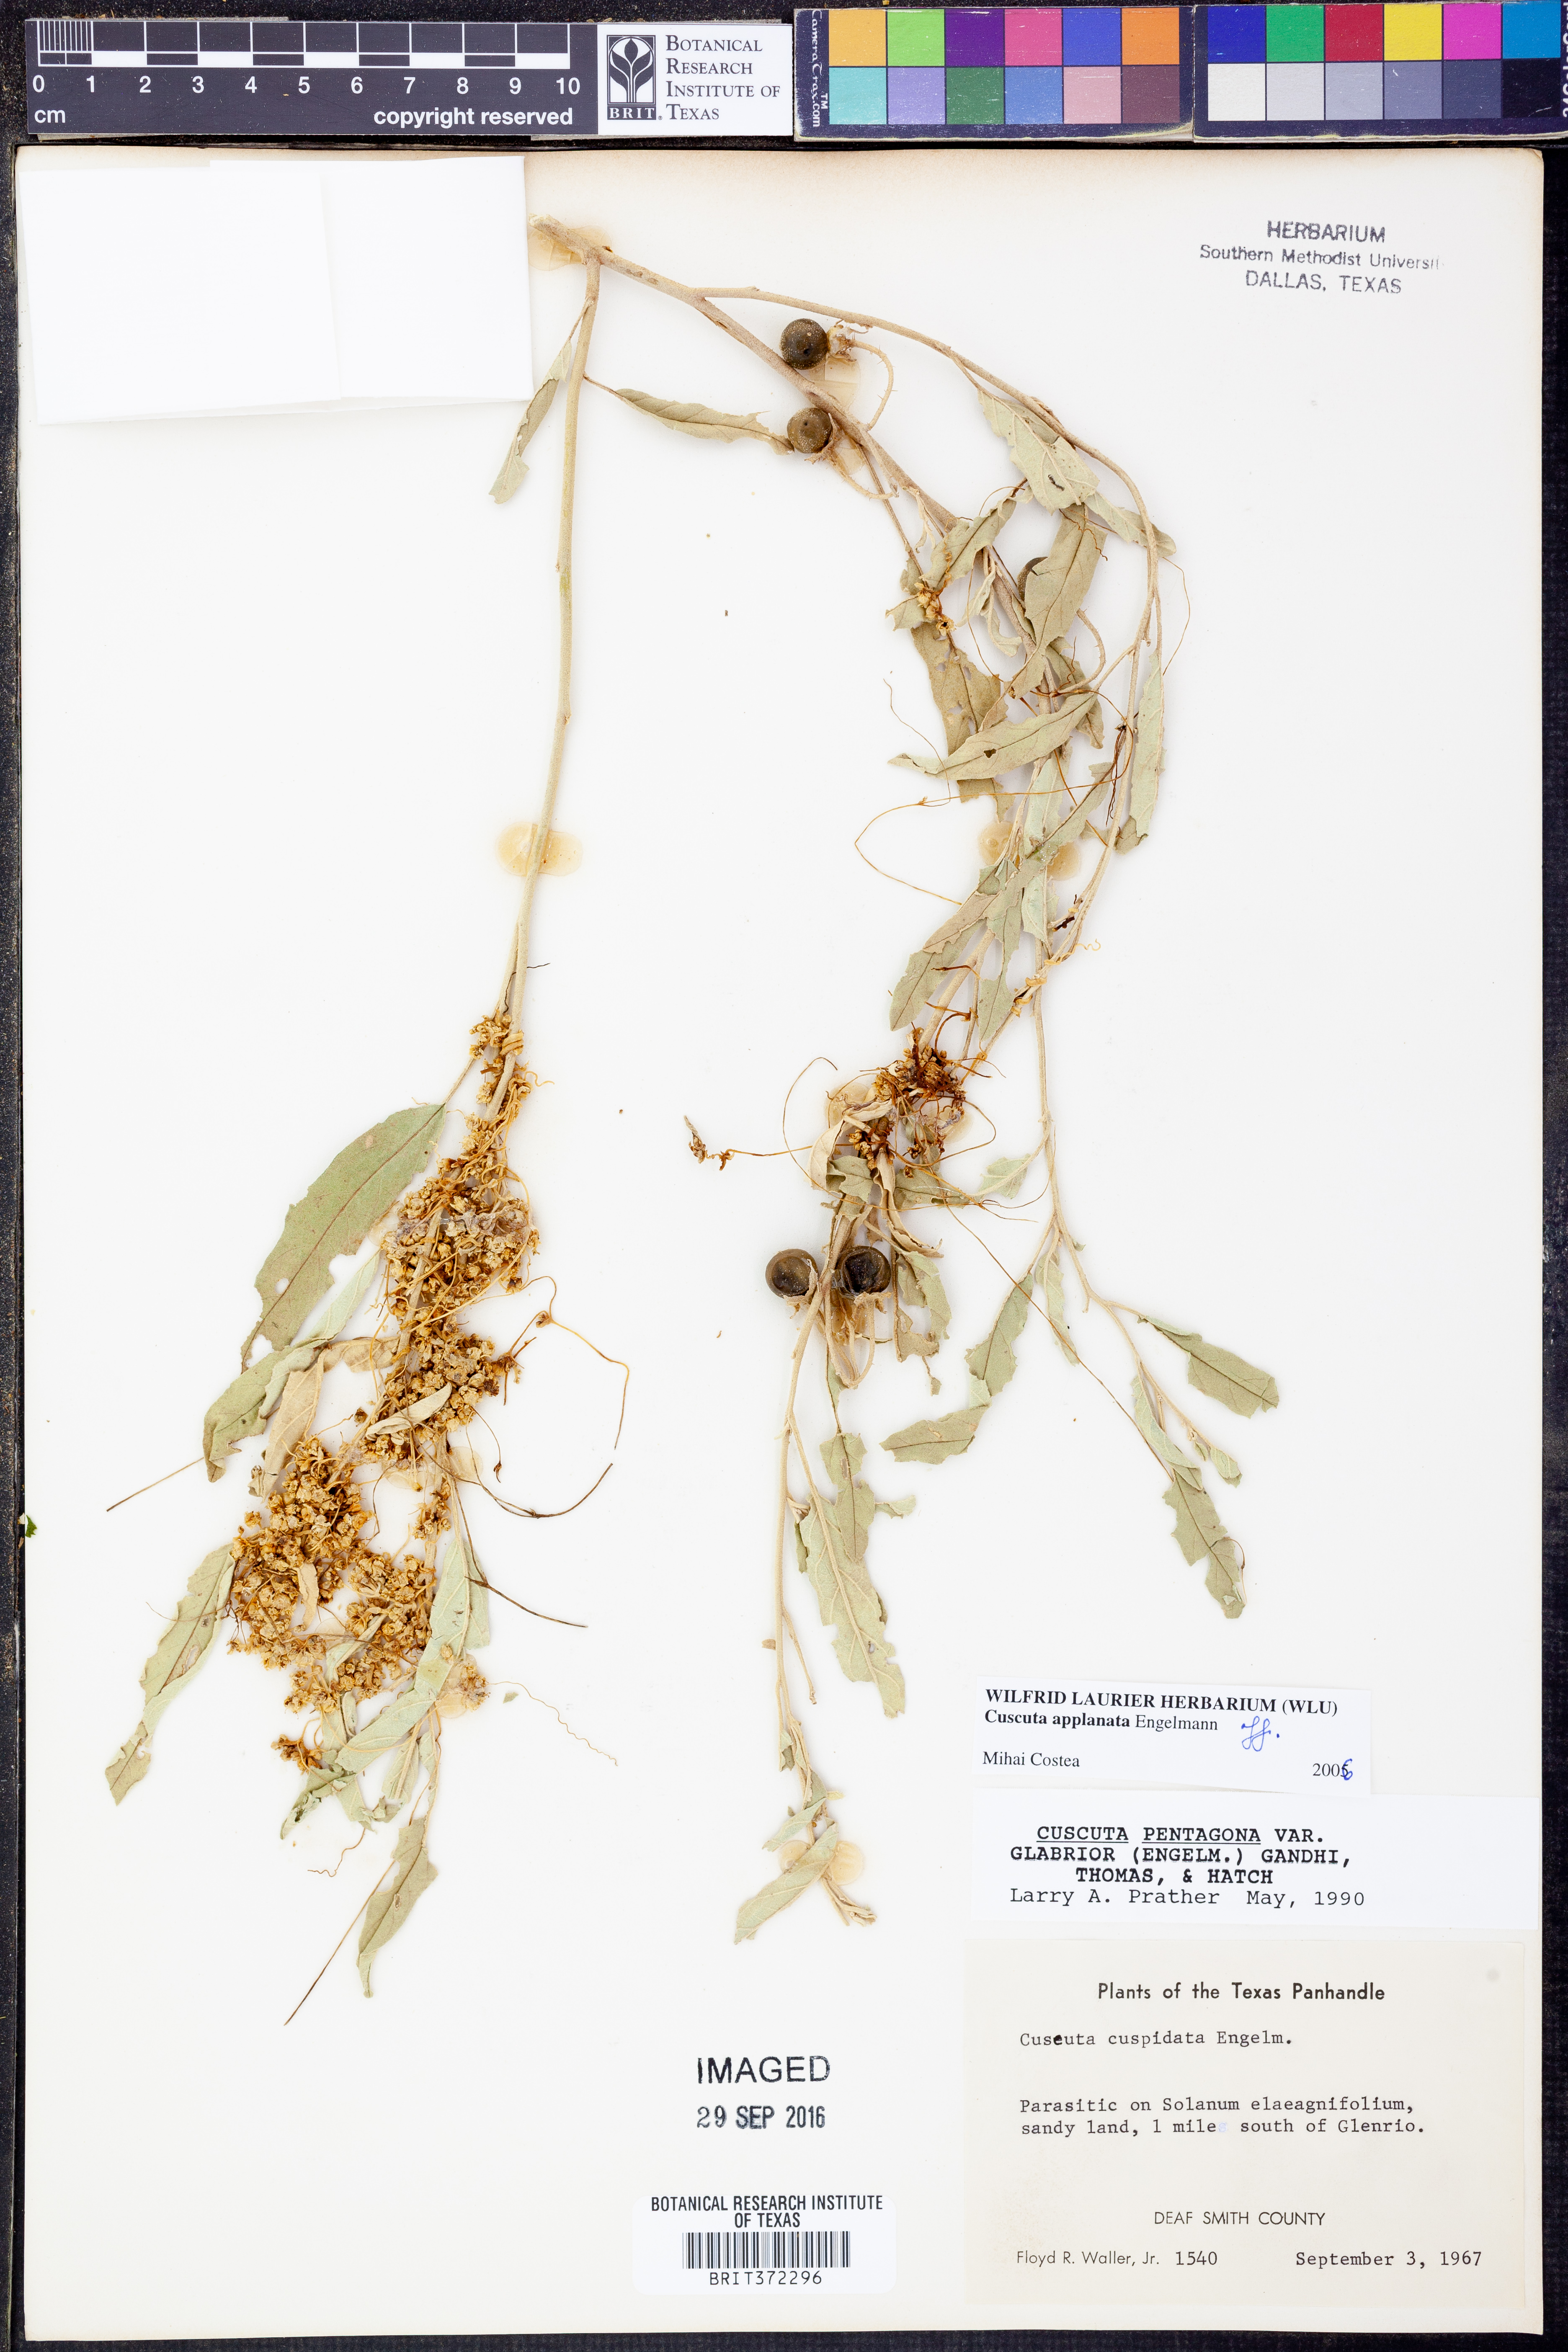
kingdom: Plantae
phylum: Tracheophyta
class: Magnoliopsida
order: Solanales
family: Convolvulaceae
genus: Cuscuta
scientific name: Cuscuta applanata
